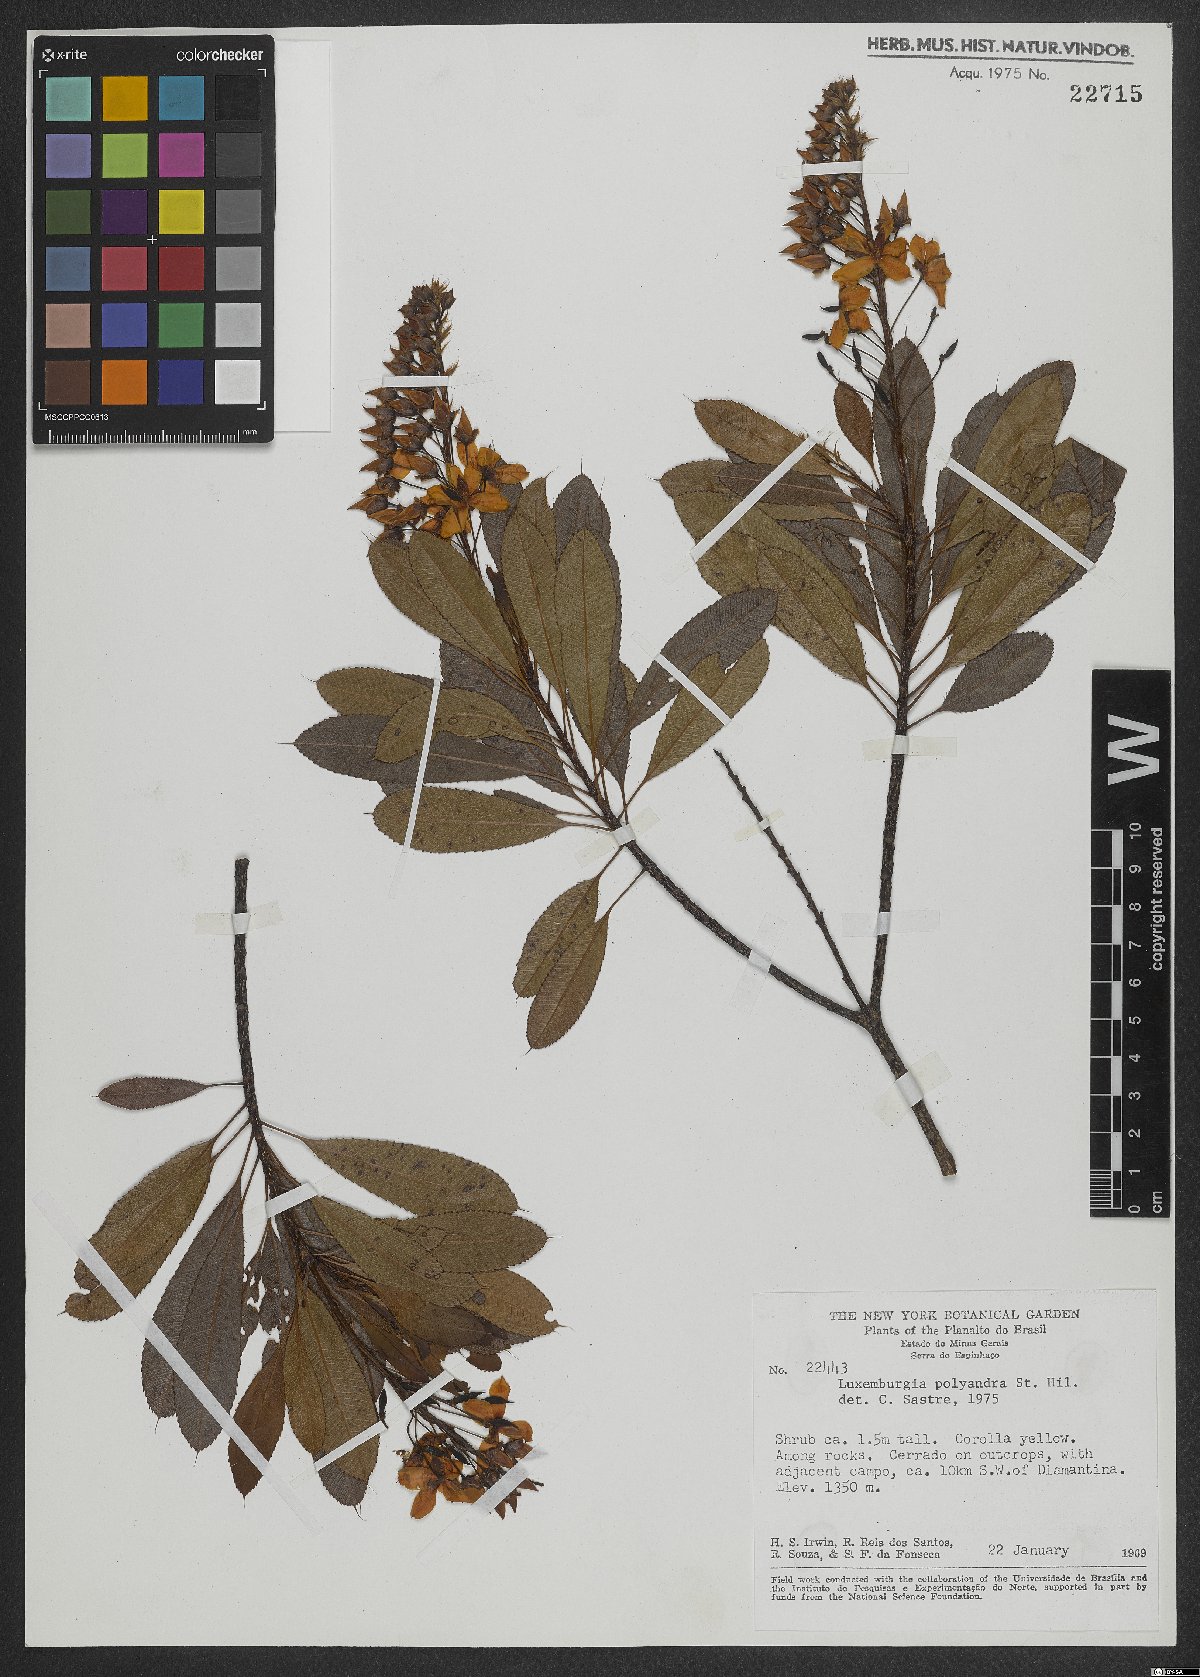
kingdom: Plantae
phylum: Tracheophyta
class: Magnoliopsida
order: Malpighiales
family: Ochnaceae
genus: Luxemburgia
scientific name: Luxemburgia polyandra
